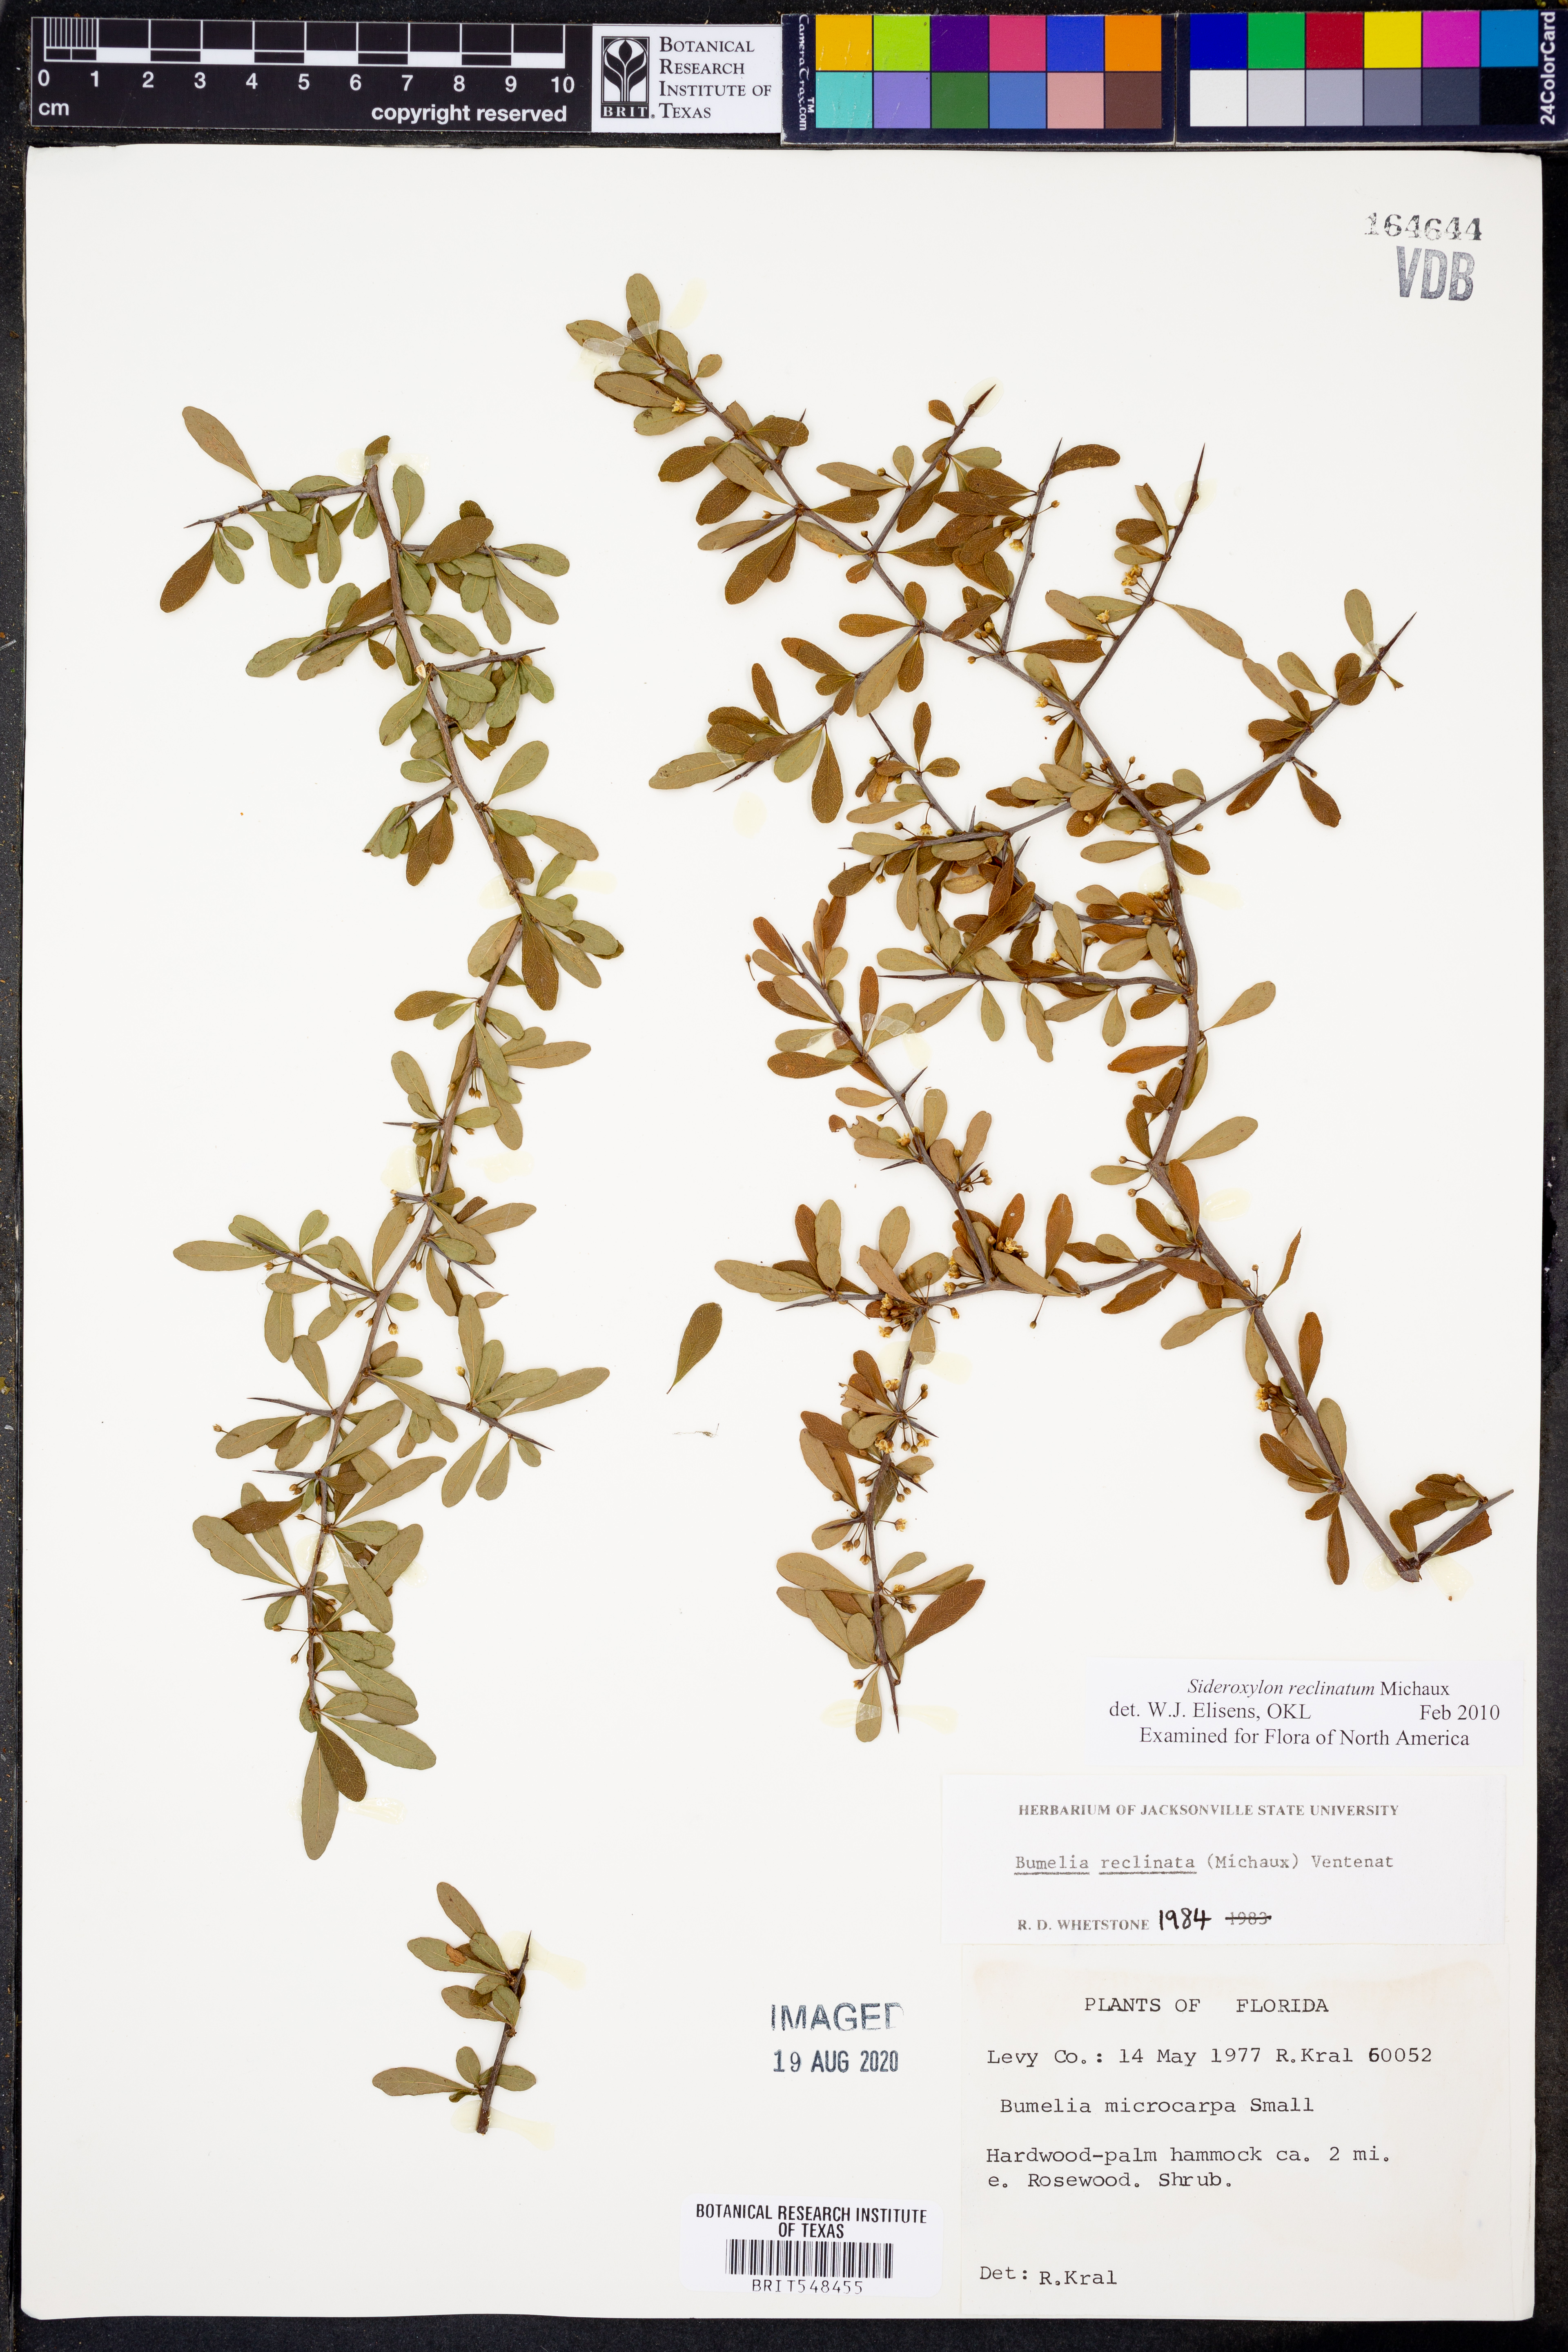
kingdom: Plantae
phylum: Tracheophyta
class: Magnoliopsida
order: Ericales
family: Sapotaceae
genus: Sideroxylon
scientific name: Sideroxylon reclinatum
